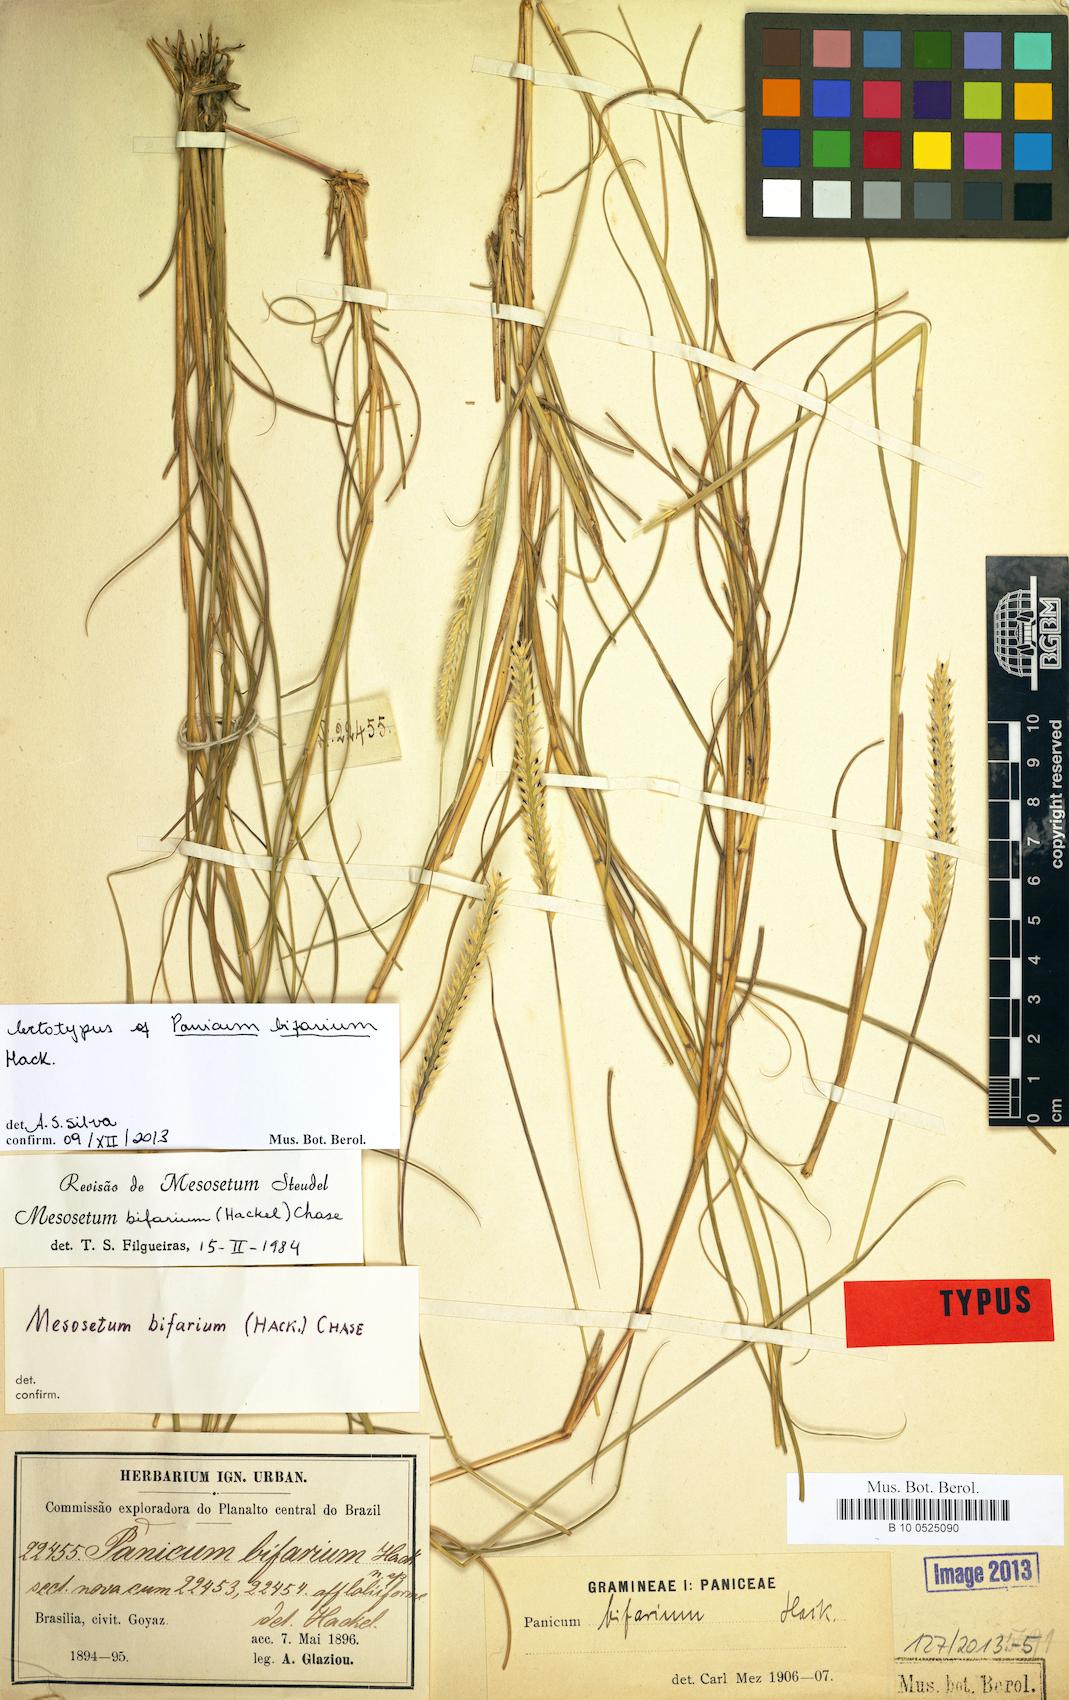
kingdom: Plantae
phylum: Tracheophyta
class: Liliopsida
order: Poales
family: Poaceae
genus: Mesosetum
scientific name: Mesosetum bifarium
